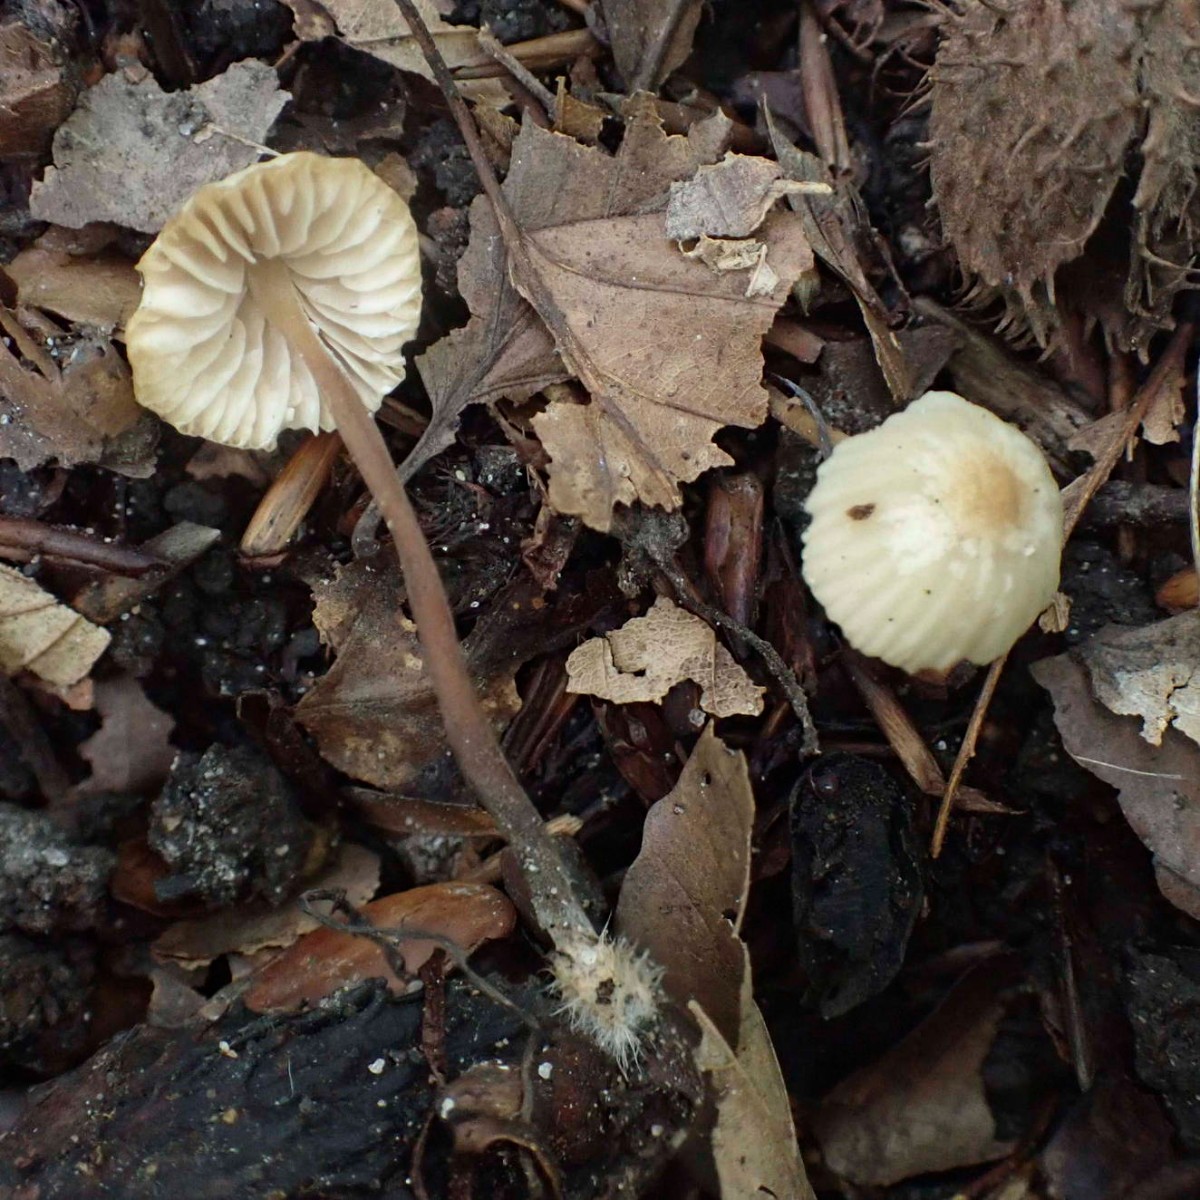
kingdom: Fungi
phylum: Basidiomycota
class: Agaricomycetes
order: Agaricales
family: Marasmiaceae
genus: Marasmius
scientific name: Marasmius torquescens
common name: filtfodet bruskhat
